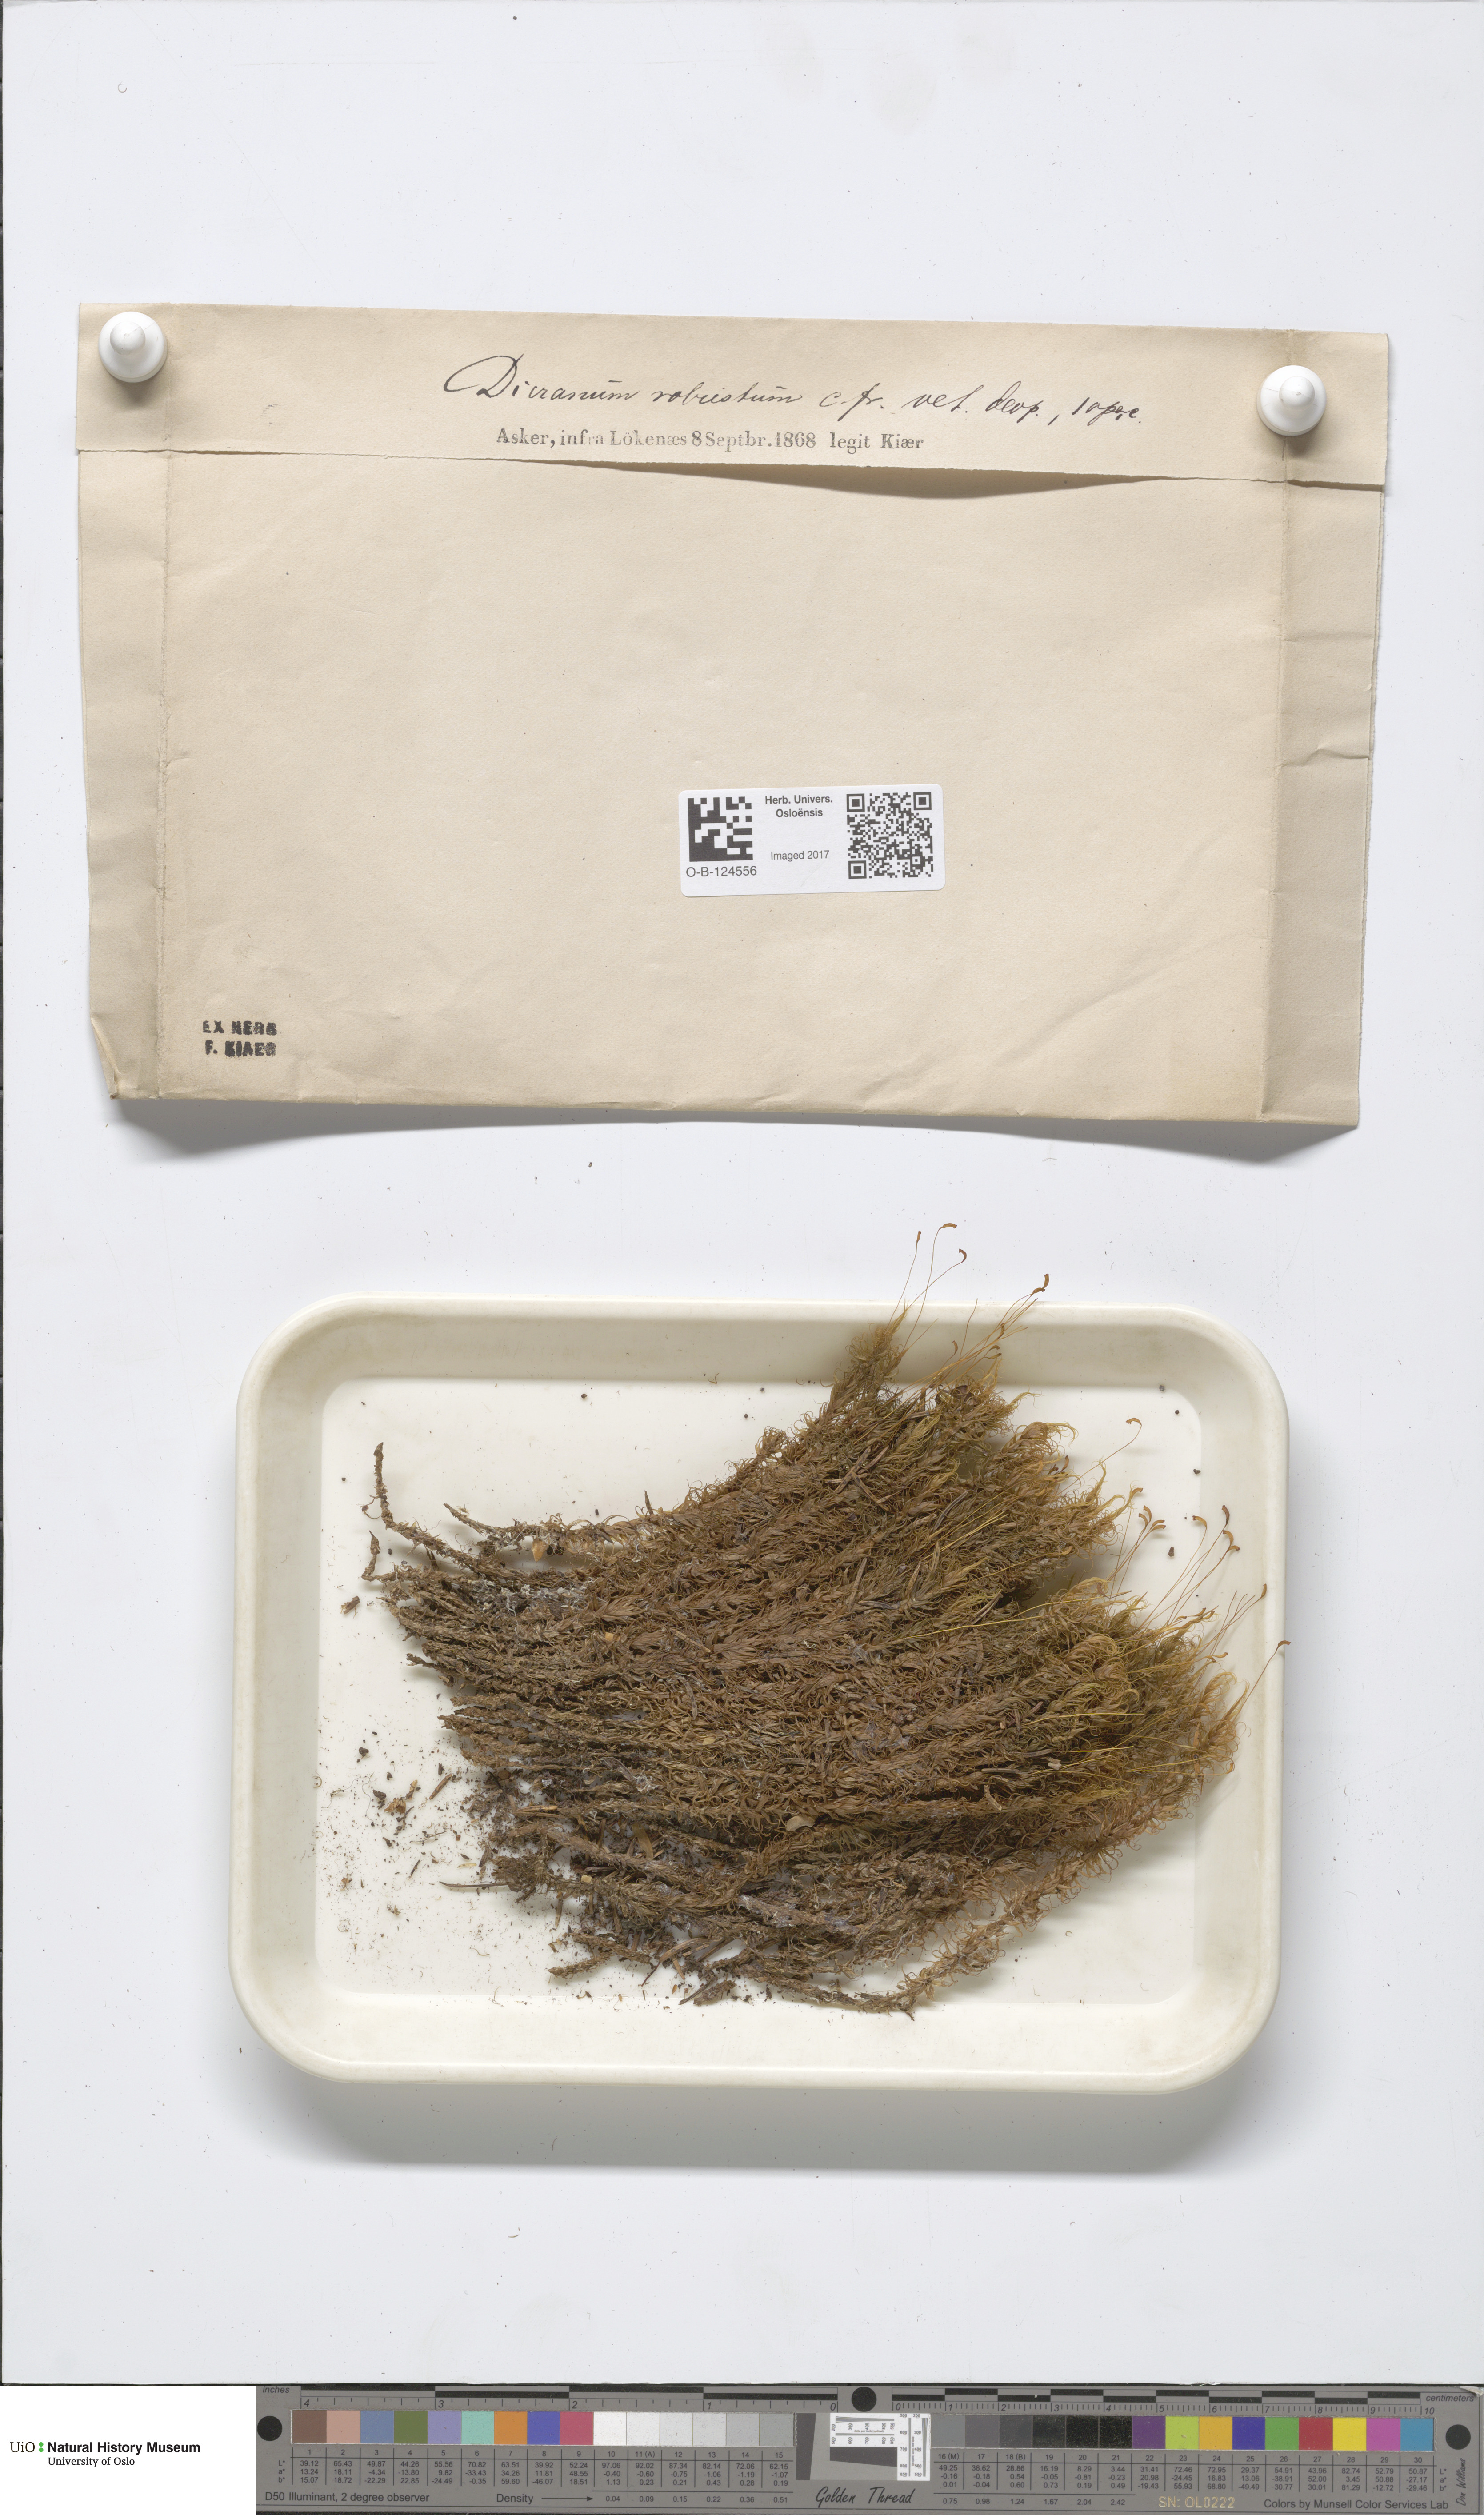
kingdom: Plantae
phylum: Bryophyta
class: Bryopsida
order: Dicranales
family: Dicranaceae
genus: Dicranum
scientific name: Dicranum drummondii
